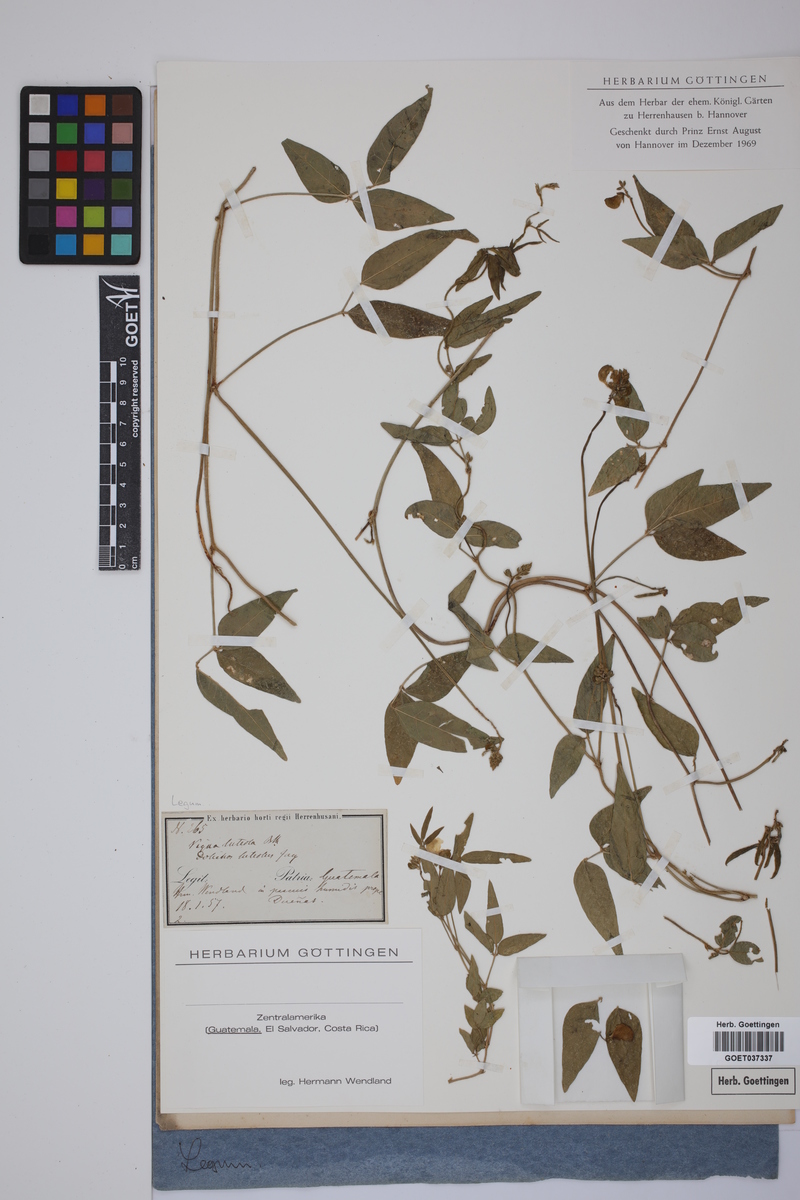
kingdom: Plantae
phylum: Tracheophyta
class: Magnoliopsida
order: Fabales
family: Fabaceae
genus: Vigna
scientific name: Vigna luteola
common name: Hairypod cowpea
